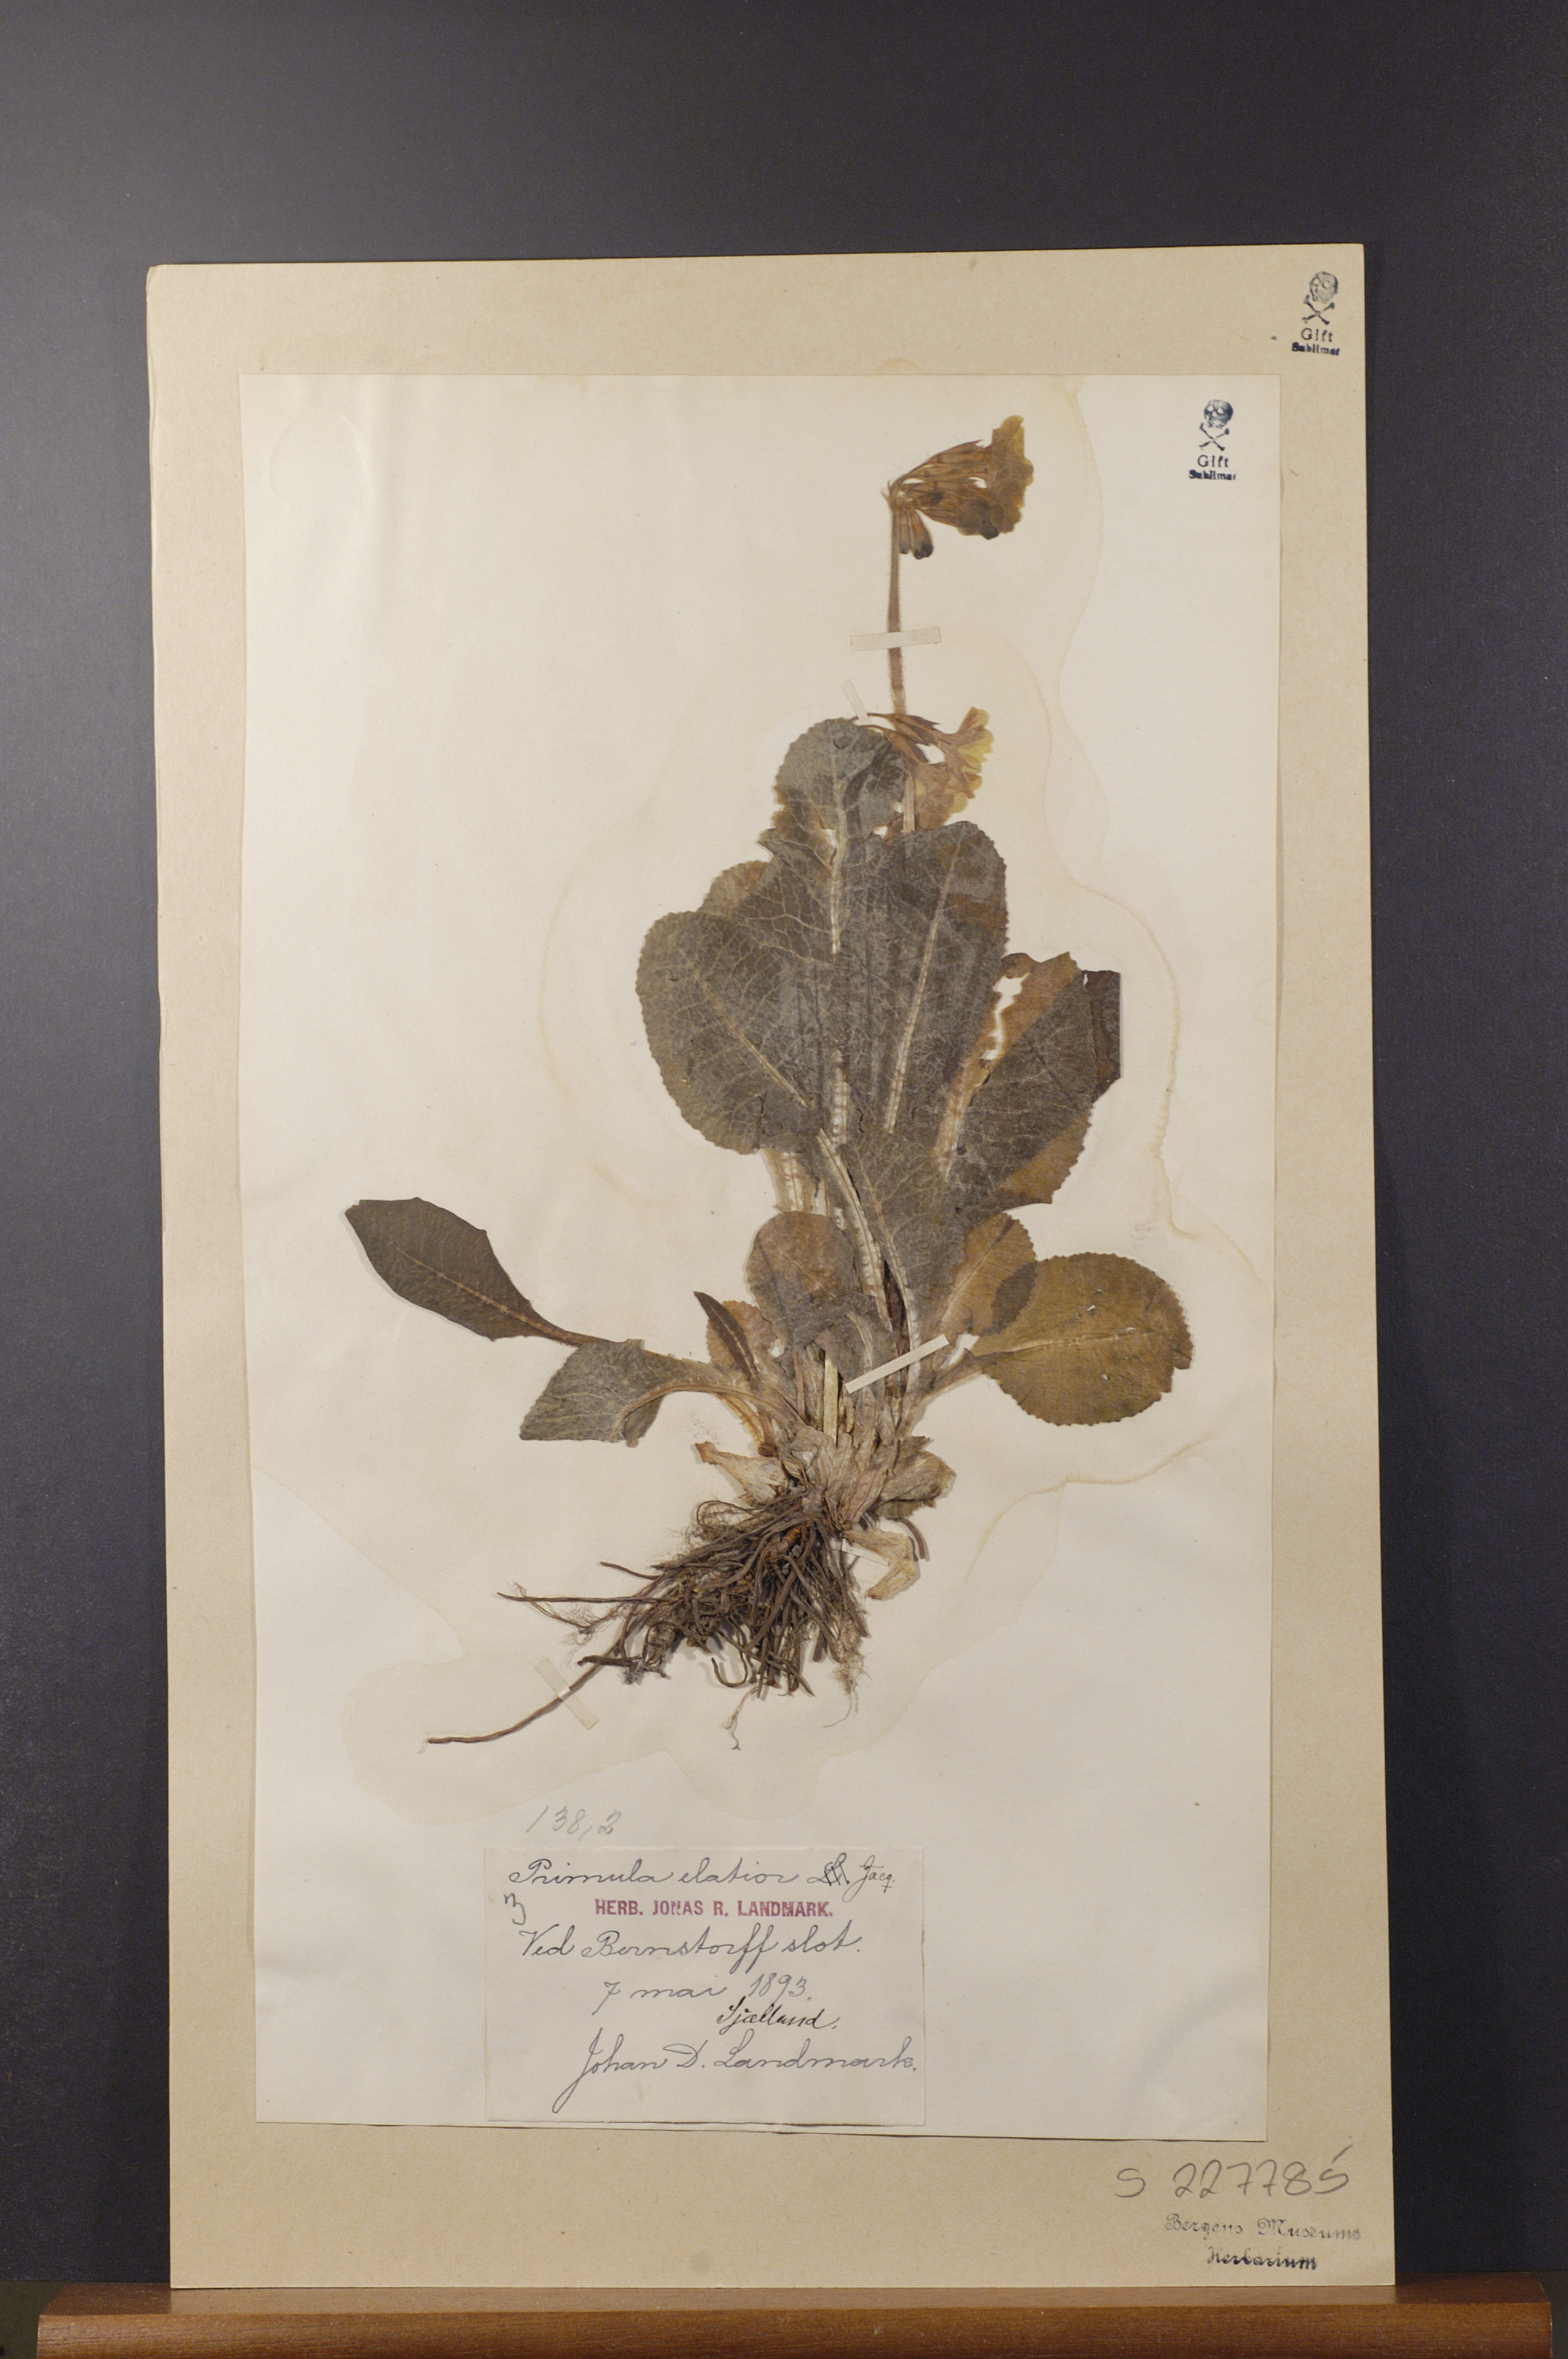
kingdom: Plantae
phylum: Tracheophyta
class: Magnoliopsida
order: Ericales
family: Primulaceae
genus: Primula
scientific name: Primula elatior
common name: Oxlip
